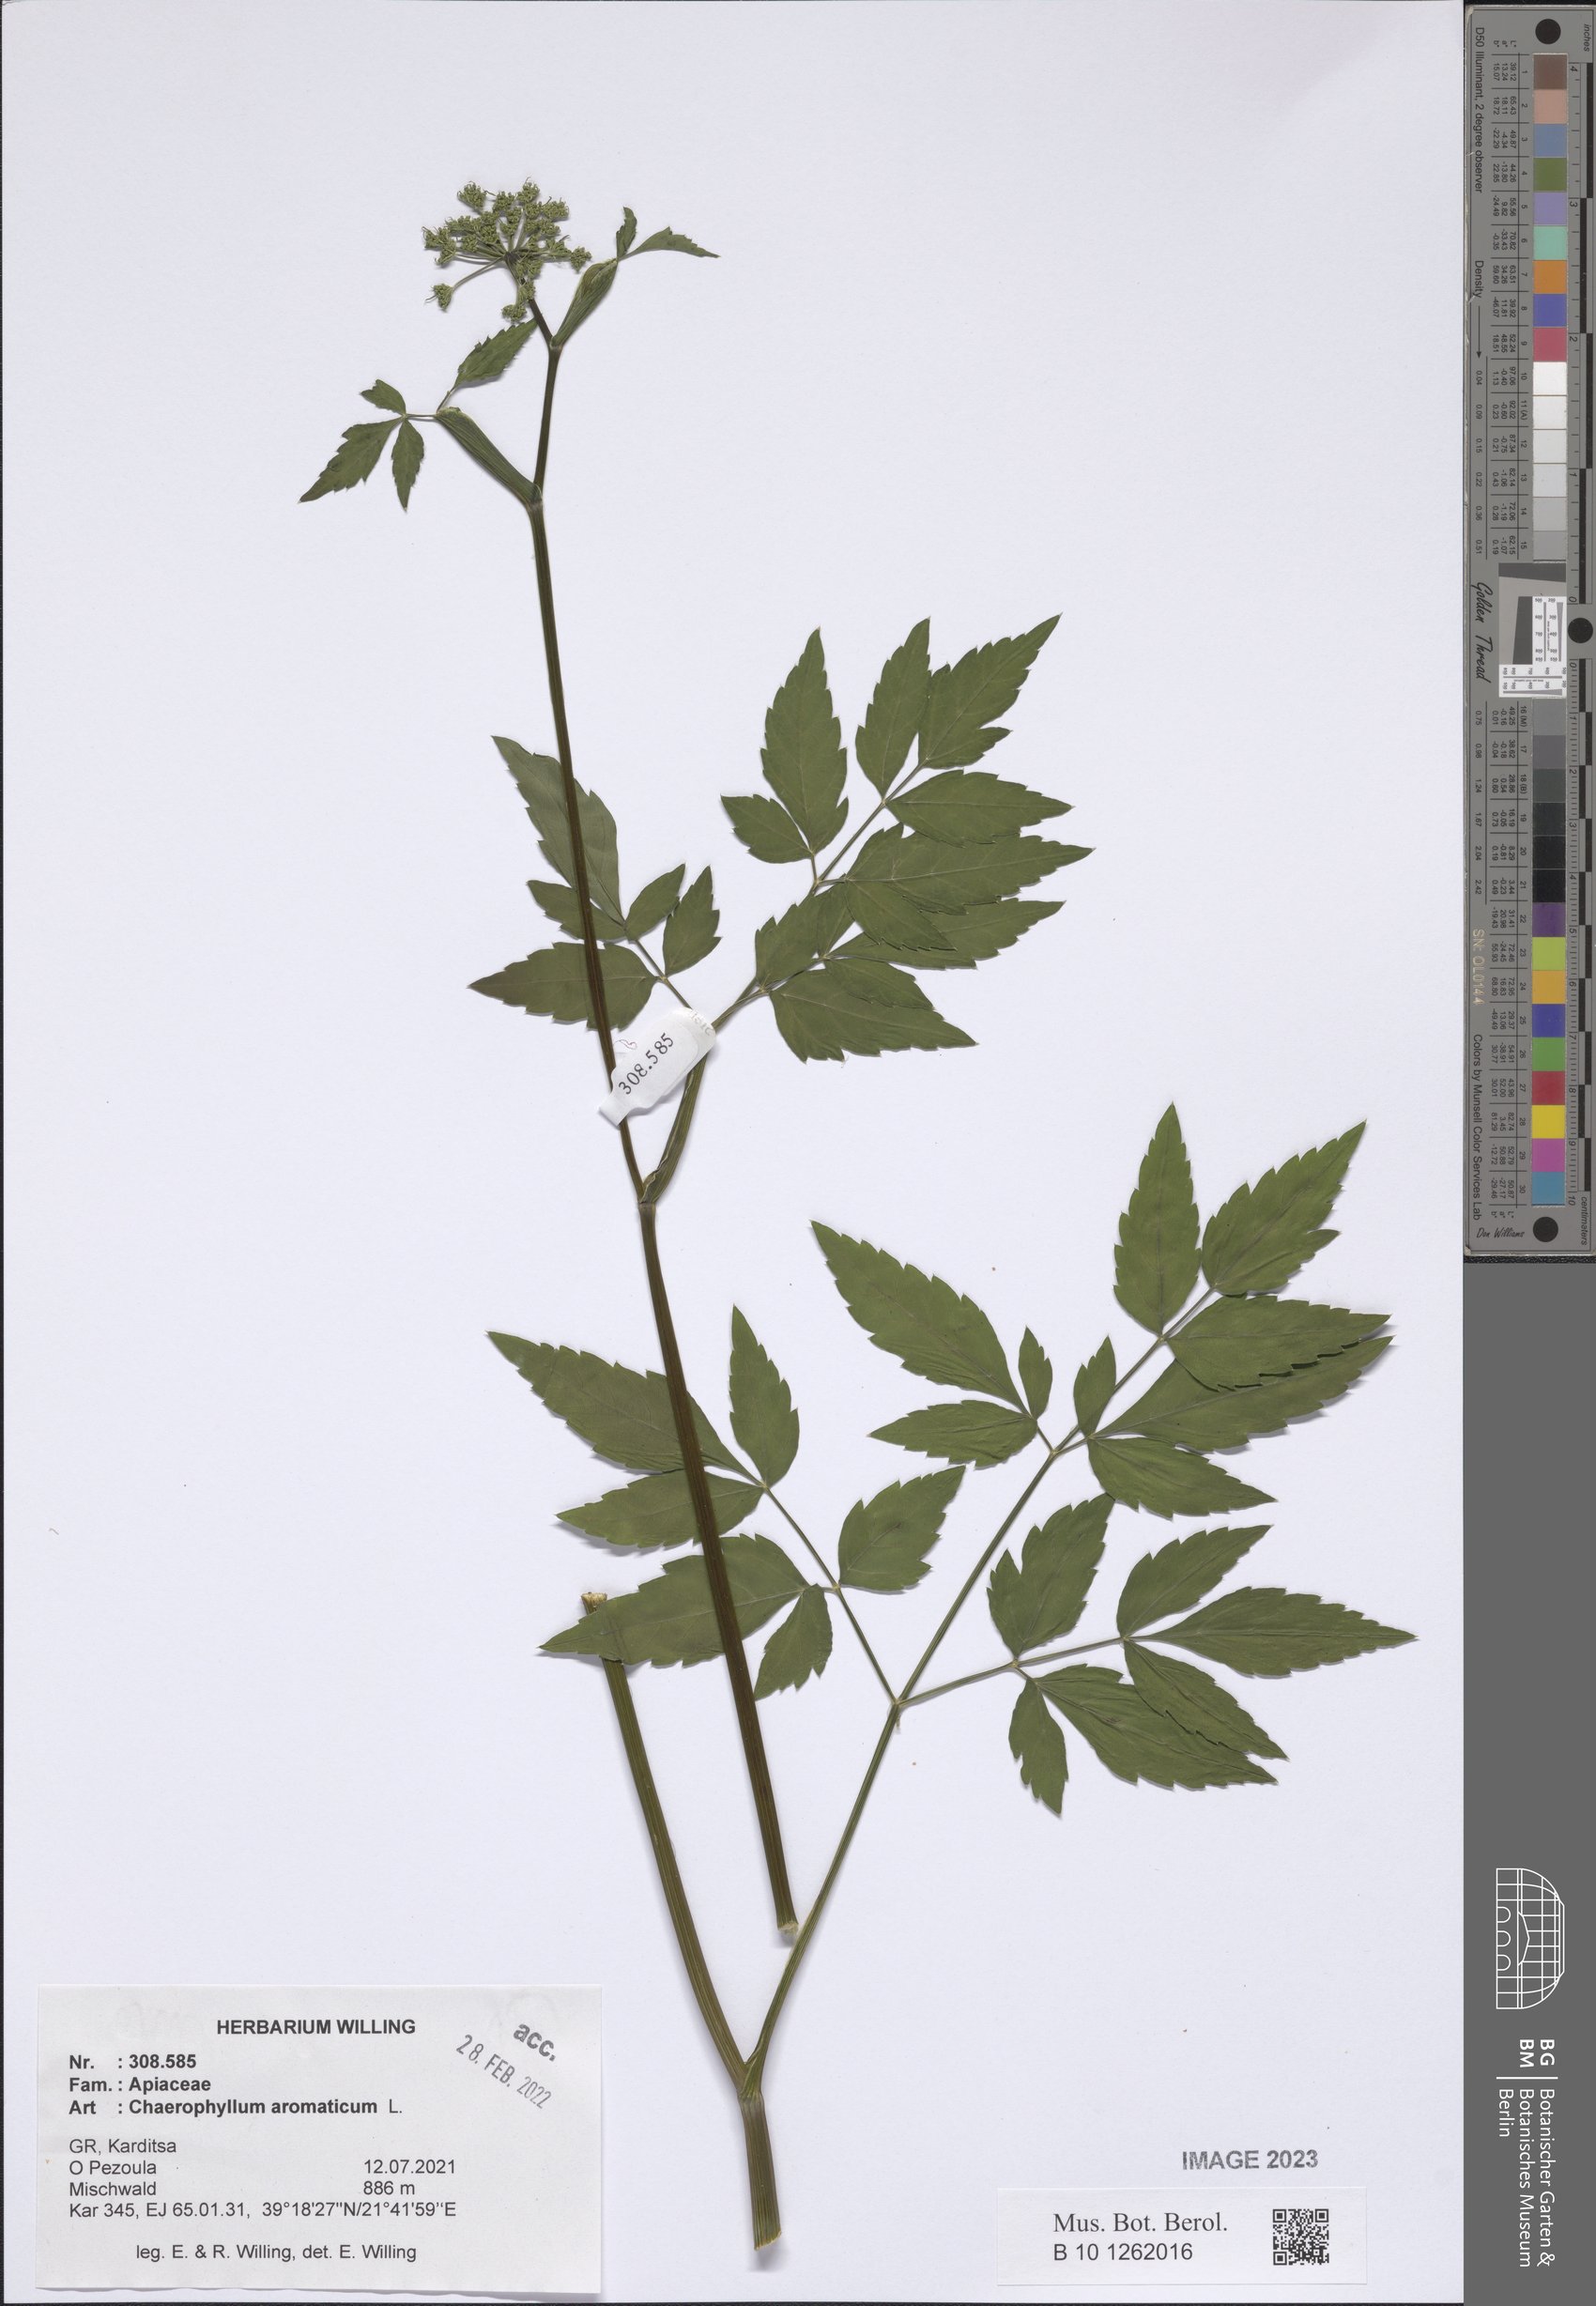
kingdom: Plantae
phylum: Tracheophyta
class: Magnoliopsida
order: Apiales
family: Apiaceae
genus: Chaerophyllum
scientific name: Chaerophyllum aromaticum
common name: Broadleaf chervil
